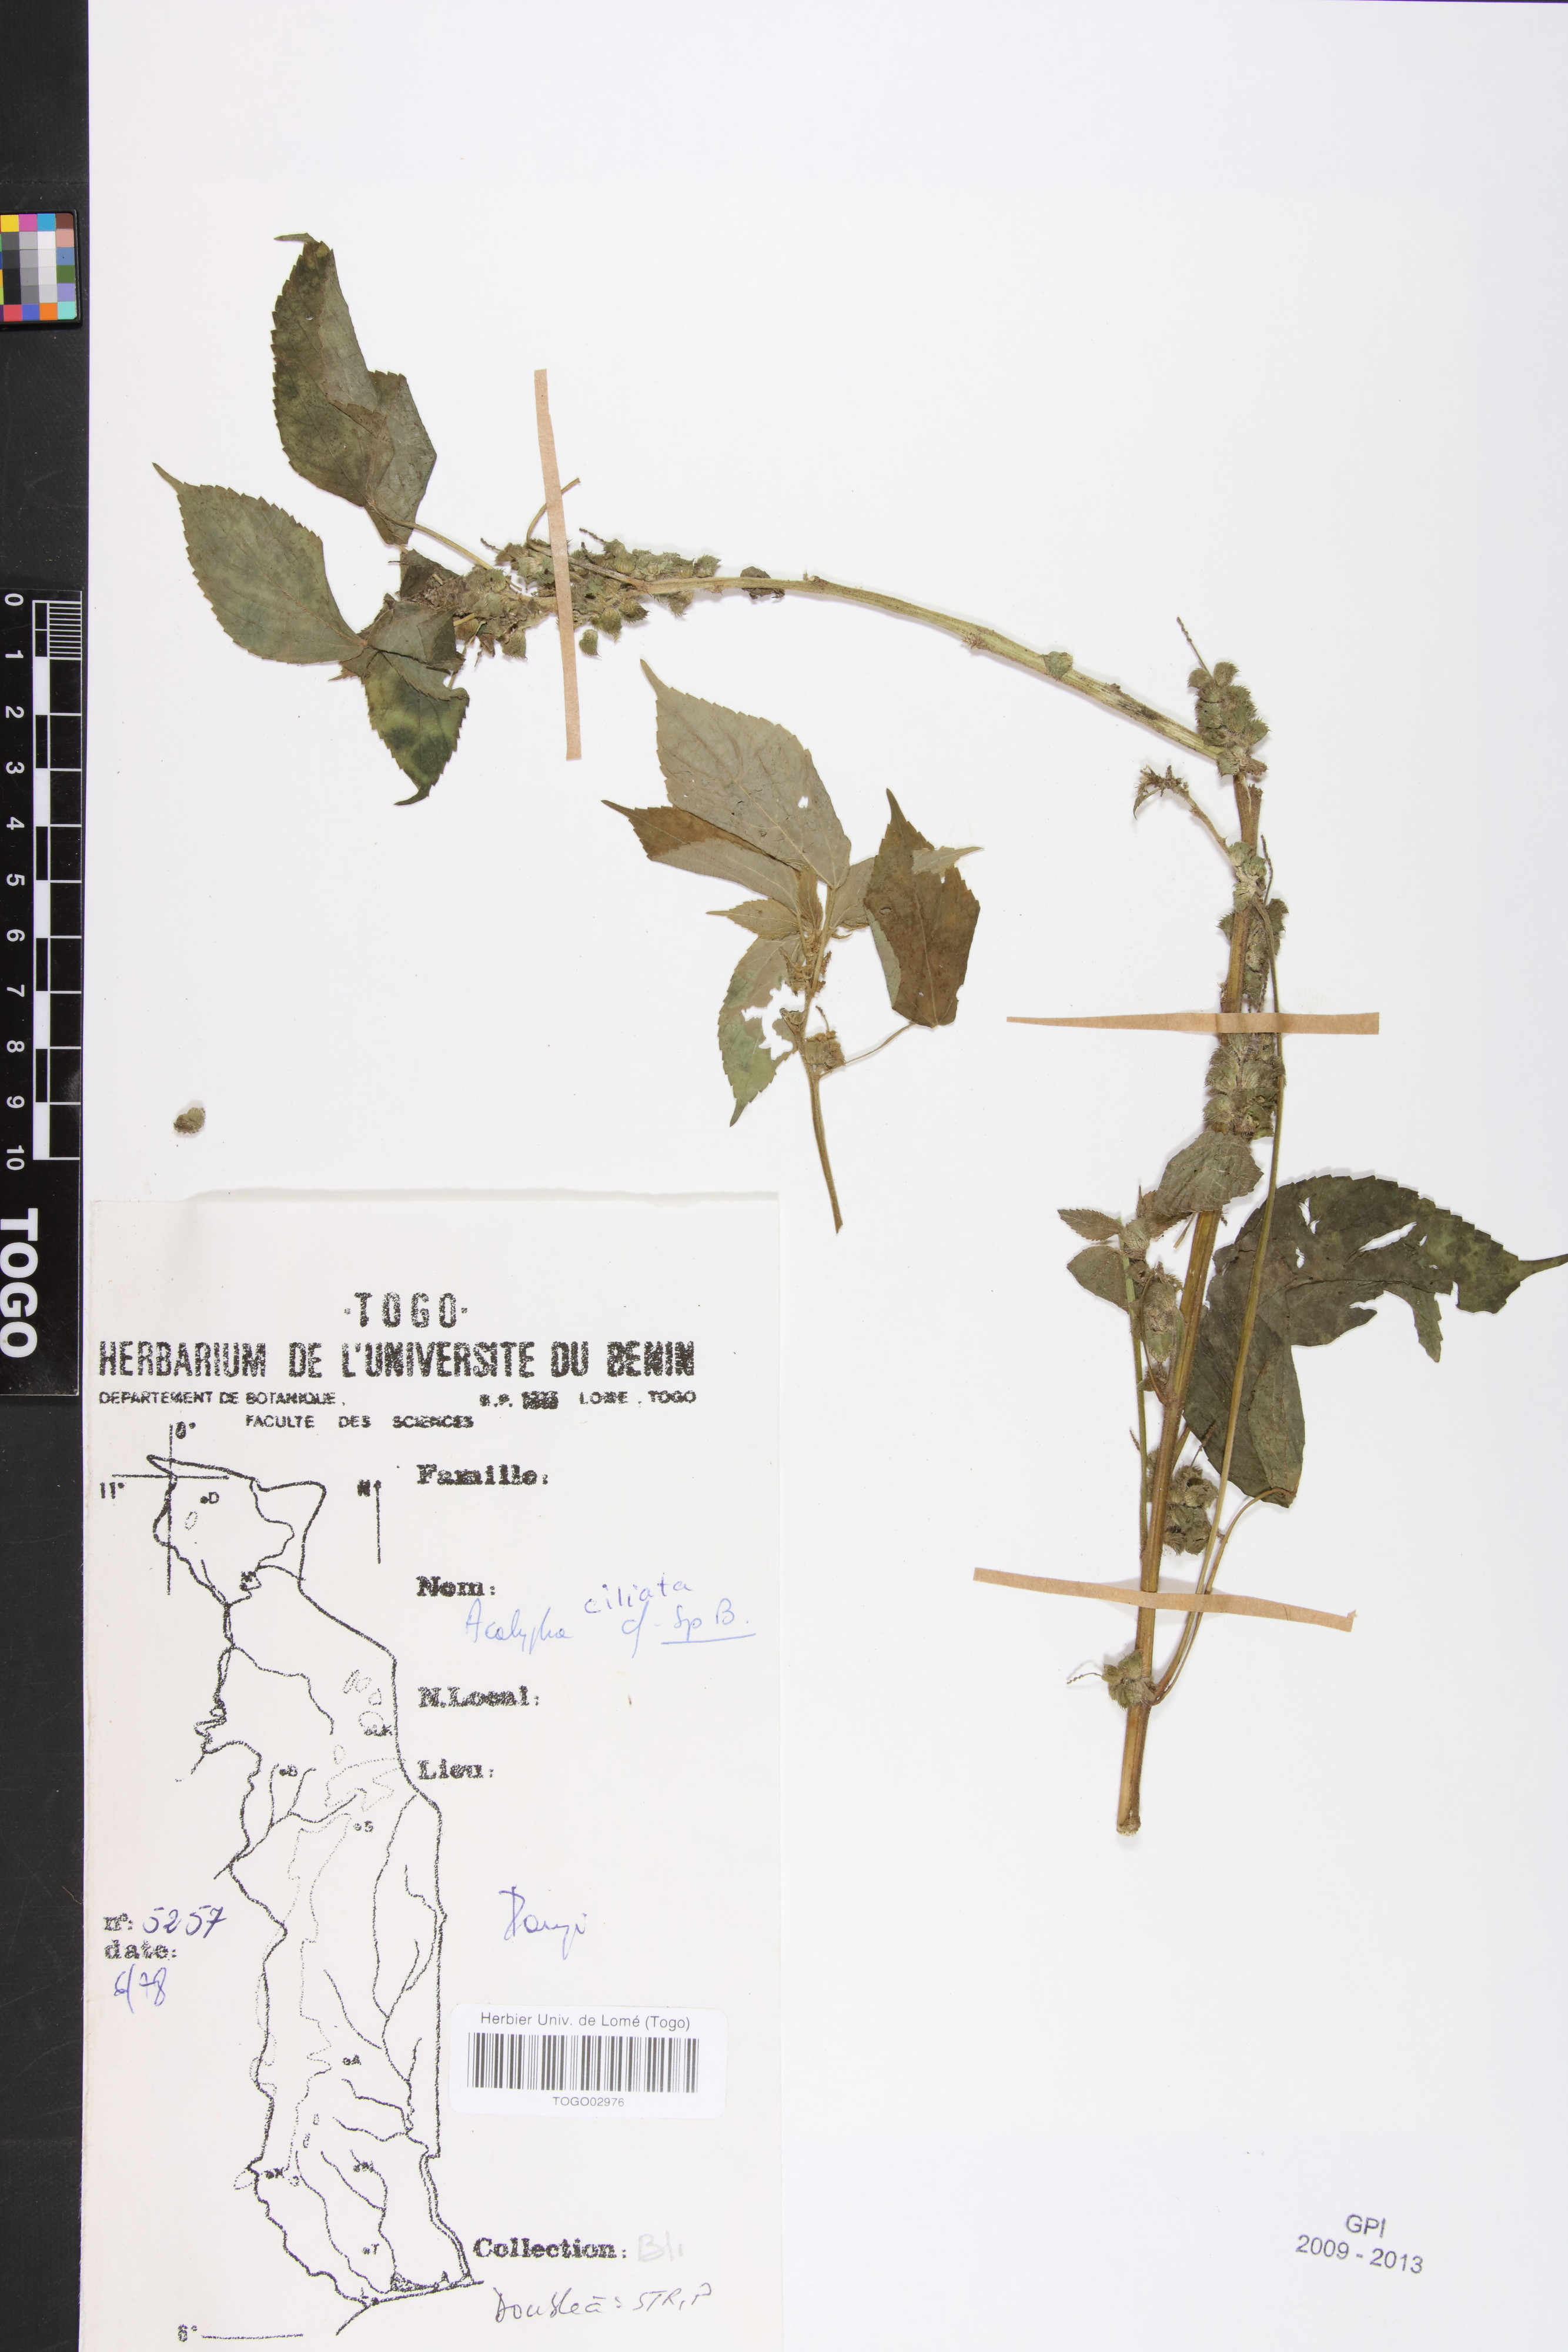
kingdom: Plantae
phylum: Tracheophyta
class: Magnoliopsida
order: Malpighiales
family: Phyllanthaceae
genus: Maesobotrya
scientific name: Maesobotrya
